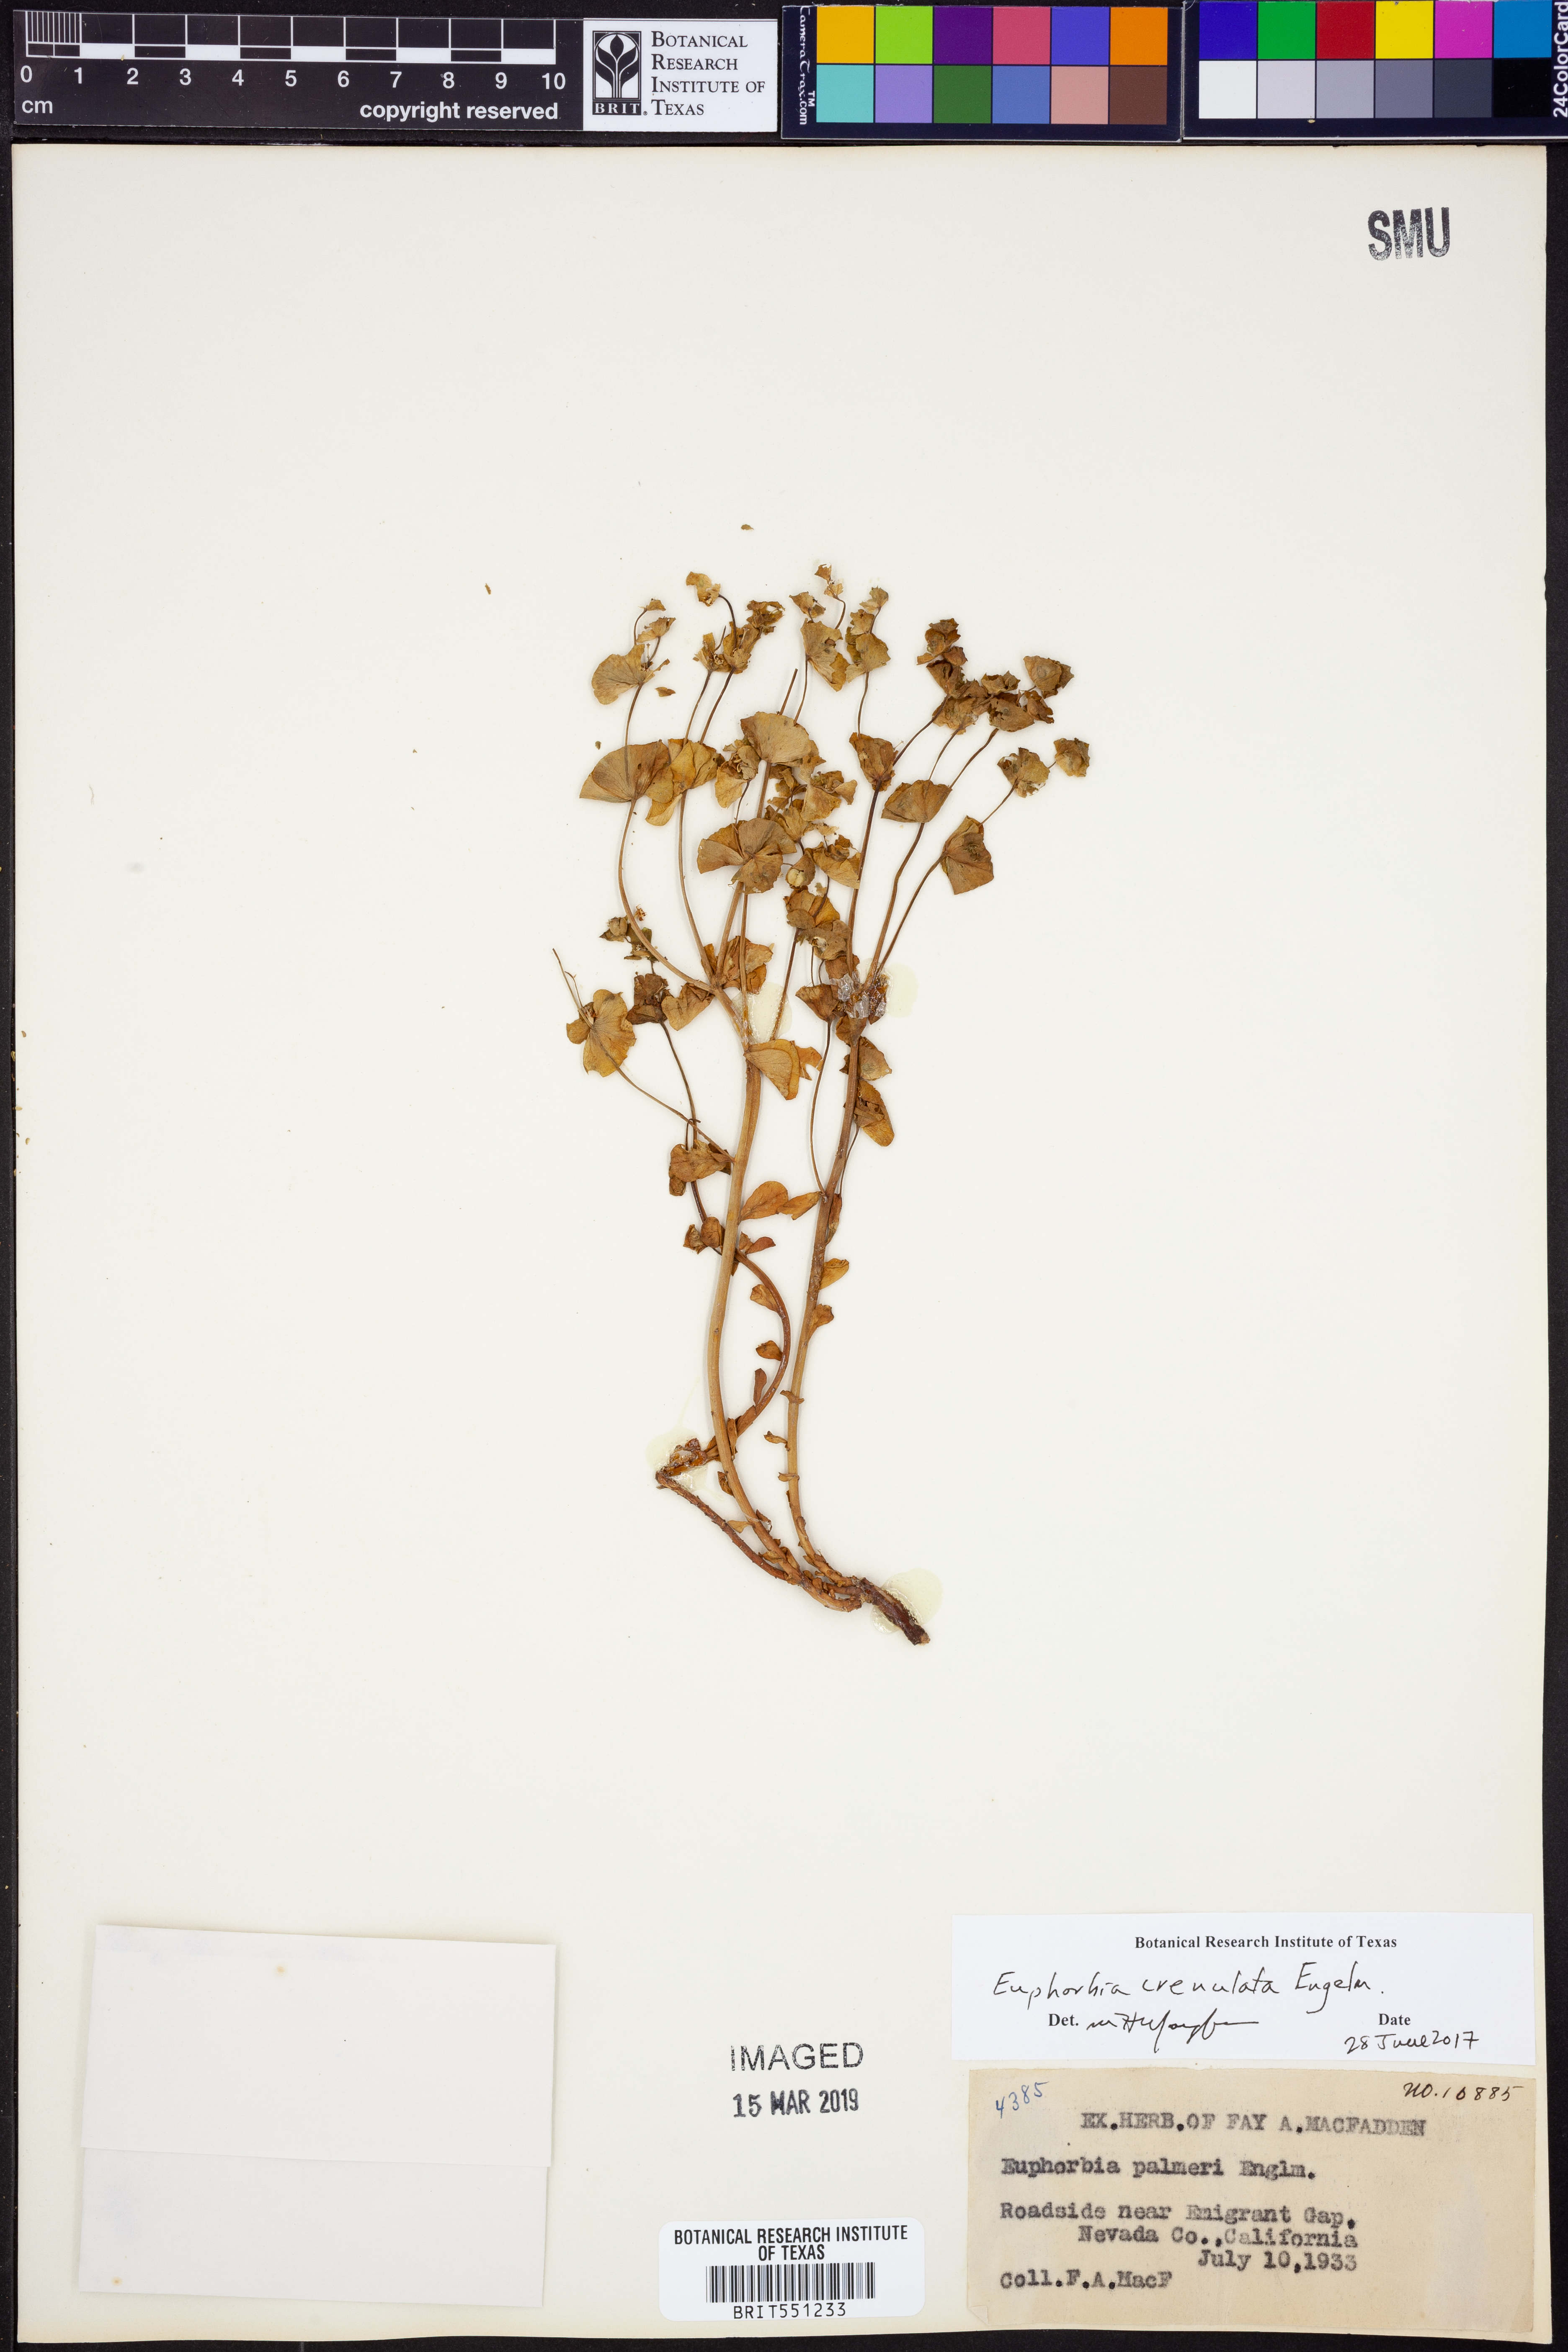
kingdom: Plantae
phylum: Tracheophyta
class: Magnoliopsida
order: Malpighiales
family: Euphorbiaceae
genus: Euphorbia
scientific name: Euphorbia crenulata
